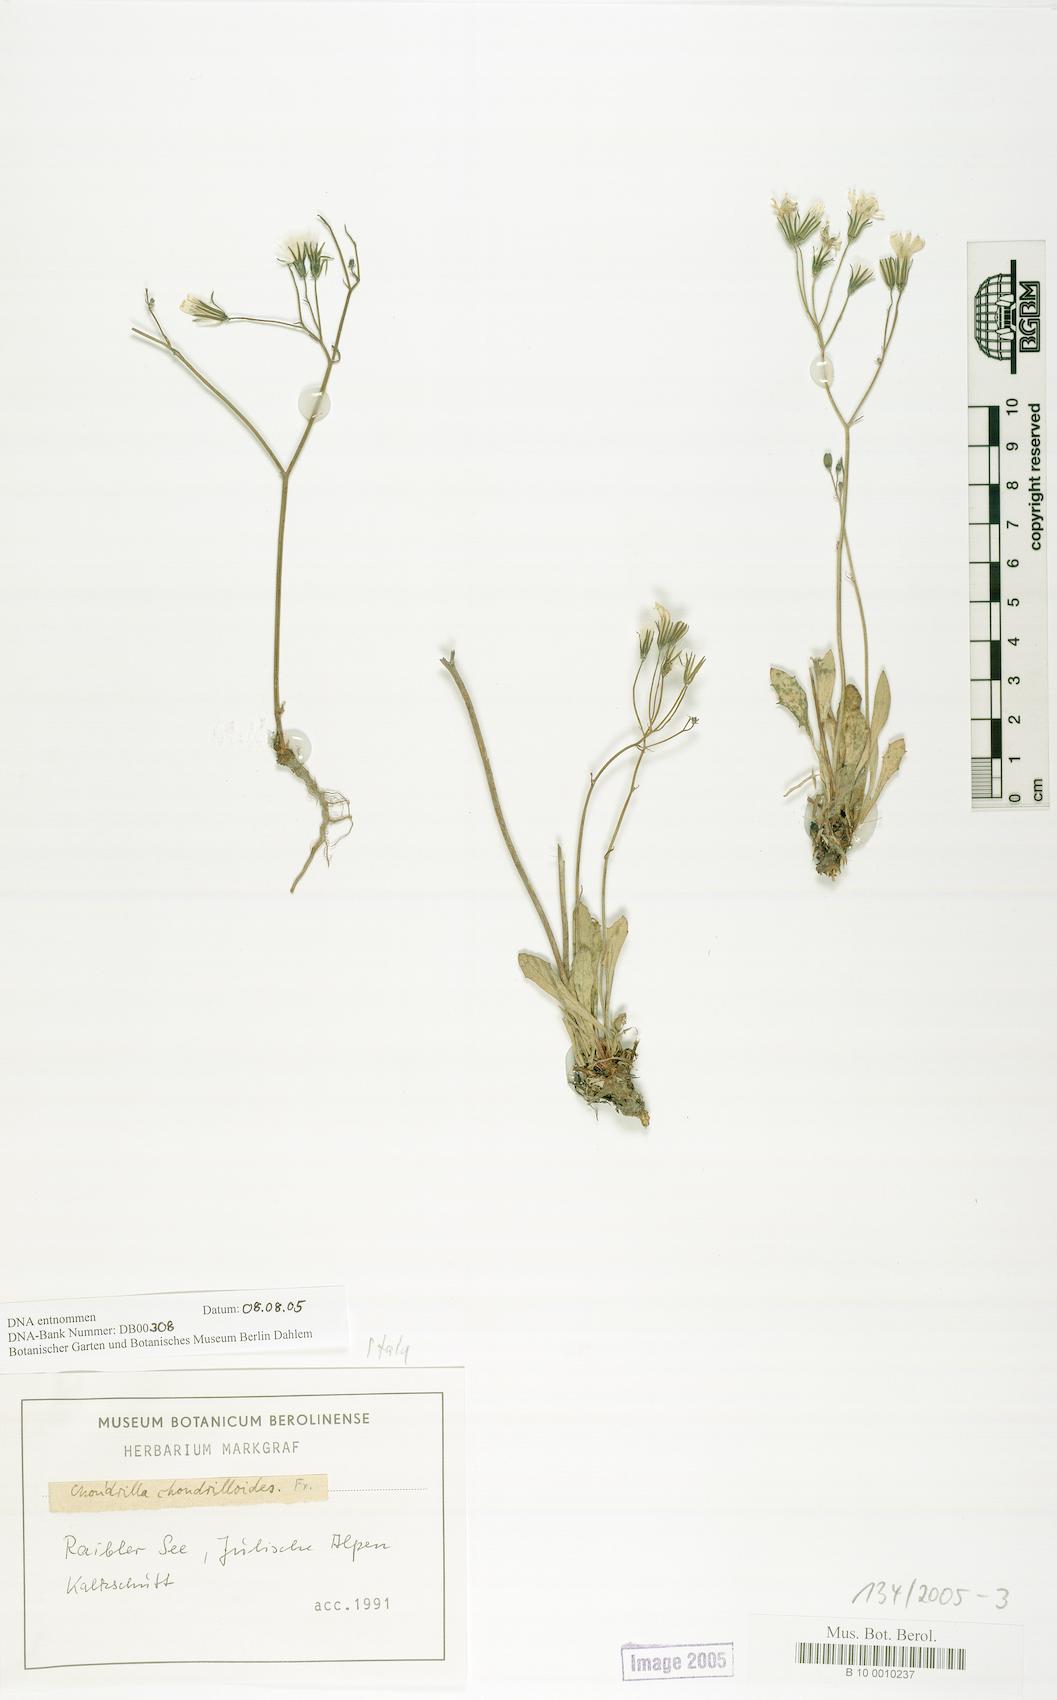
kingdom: Plantae
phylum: Tracheophyta
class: Magnoliopsida
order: Asterales
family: Asteraceae
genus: Chondrilla
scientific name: Chondrilla chondrilloides
